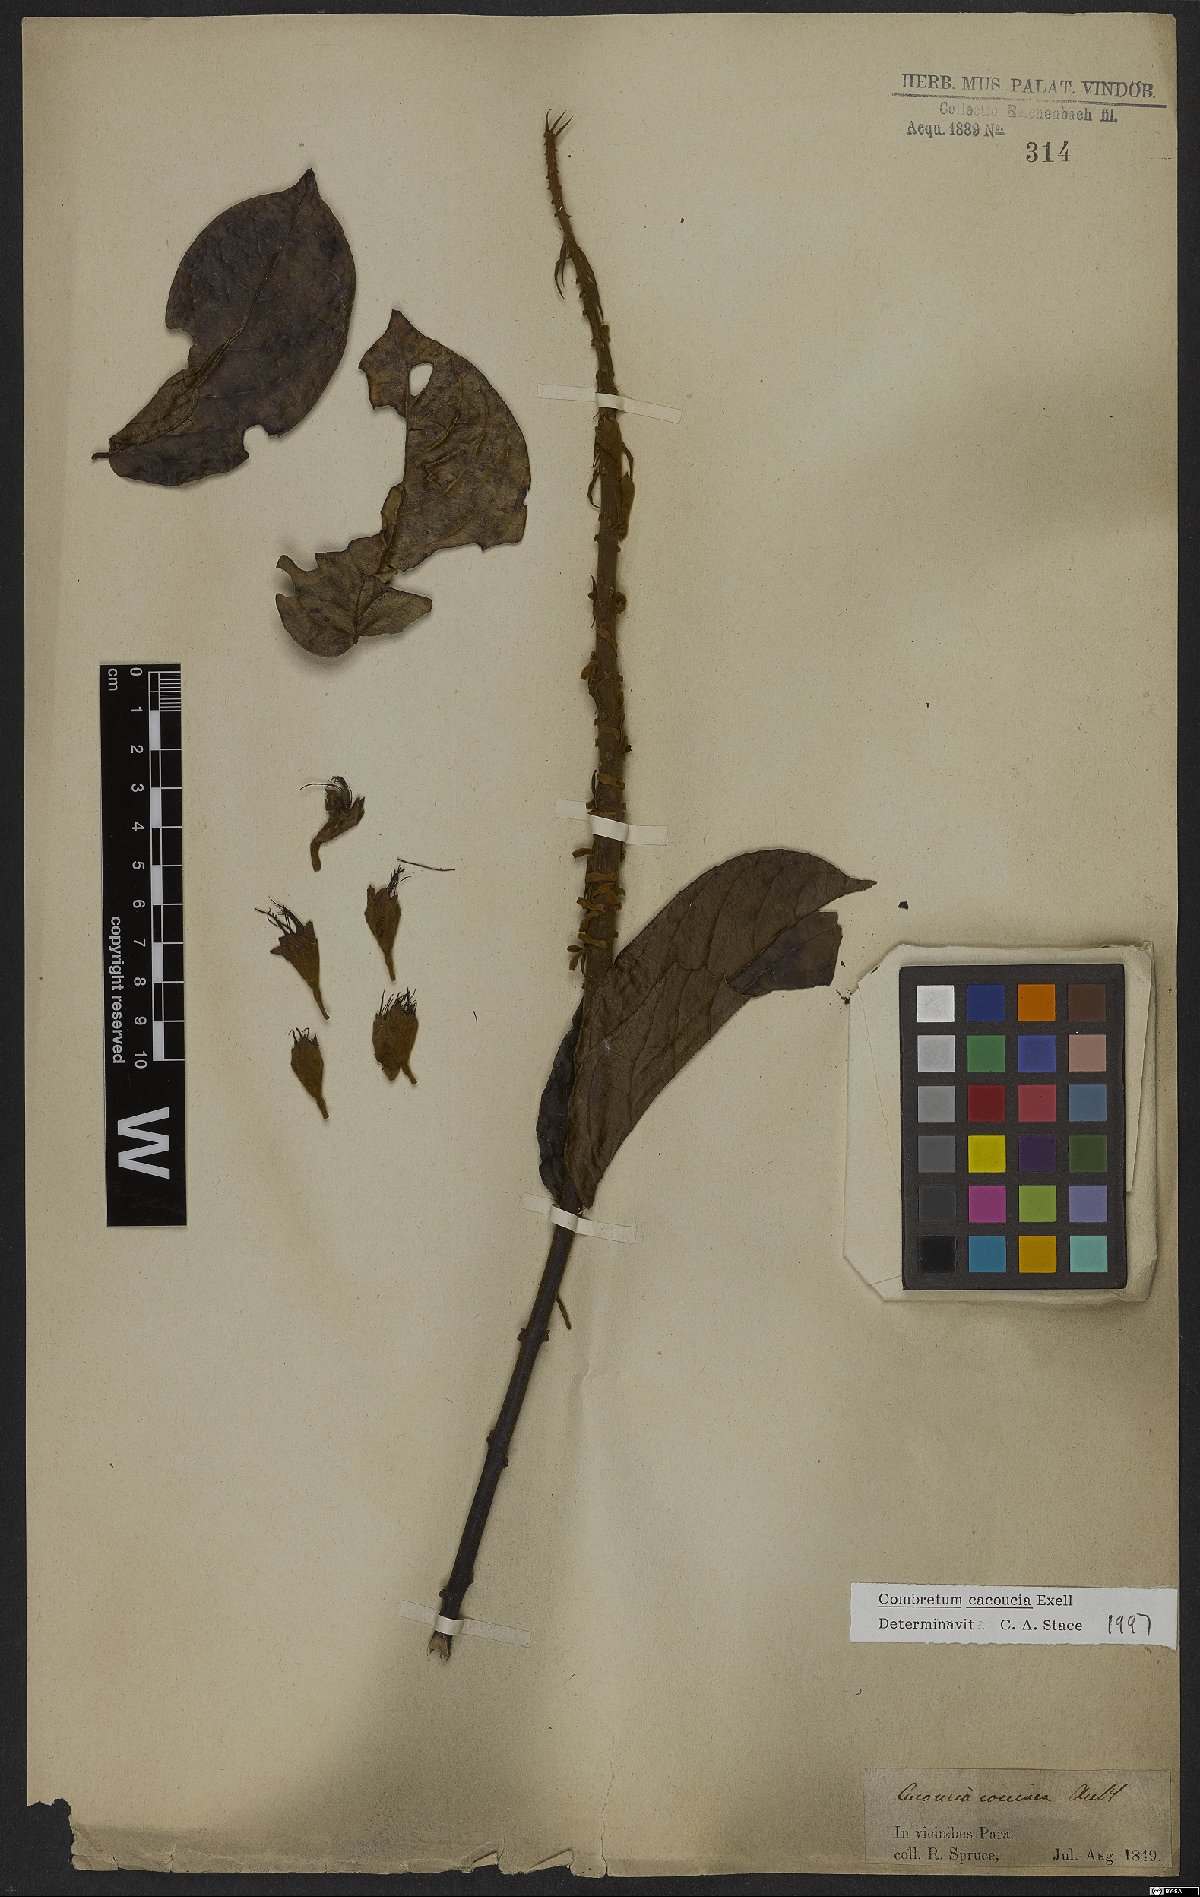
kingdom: Plantae
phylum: Tracheophyta
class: Magnoliopsida
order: Myrtales
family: Combretaceae
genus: Combretum
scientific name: Combretum cacoucia
